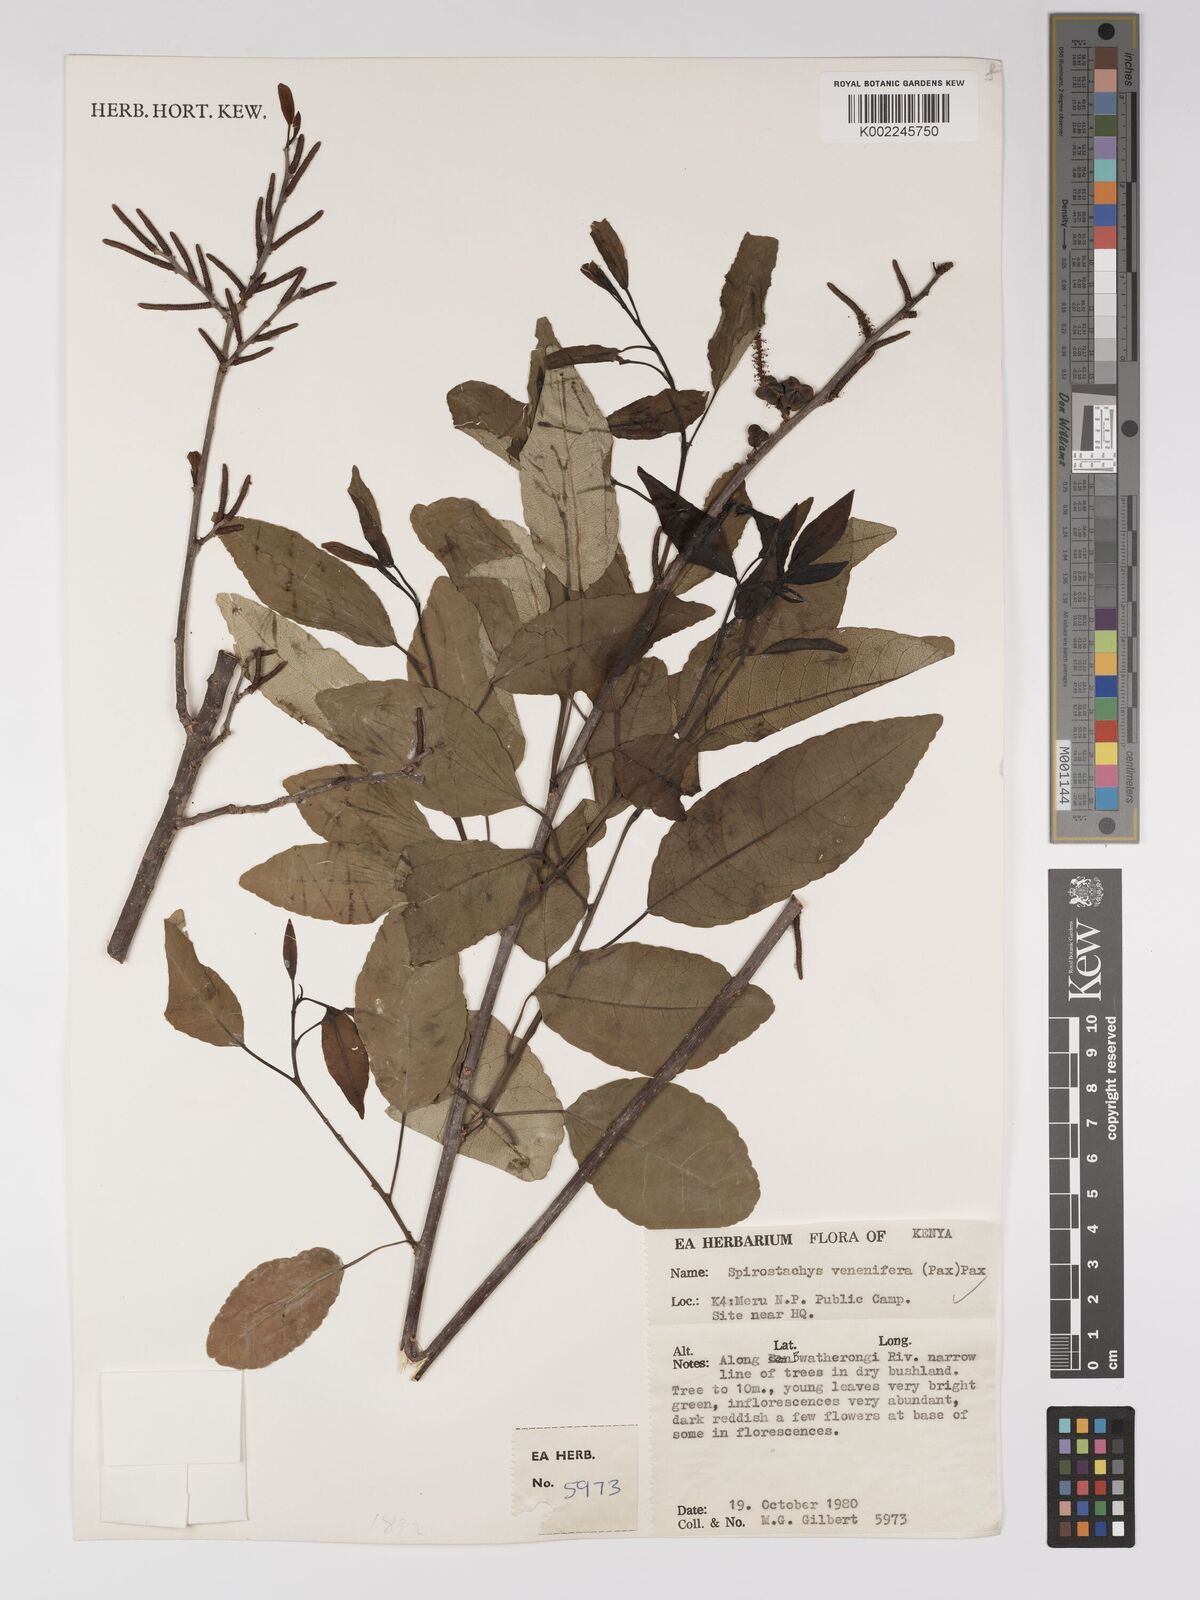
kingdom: Plantae
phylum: Tracheophyta
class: Magnoliopsida
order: Malpighiales
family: Euphorbiaceae
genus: Spirostachys
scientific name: Spirostachys venenifera
